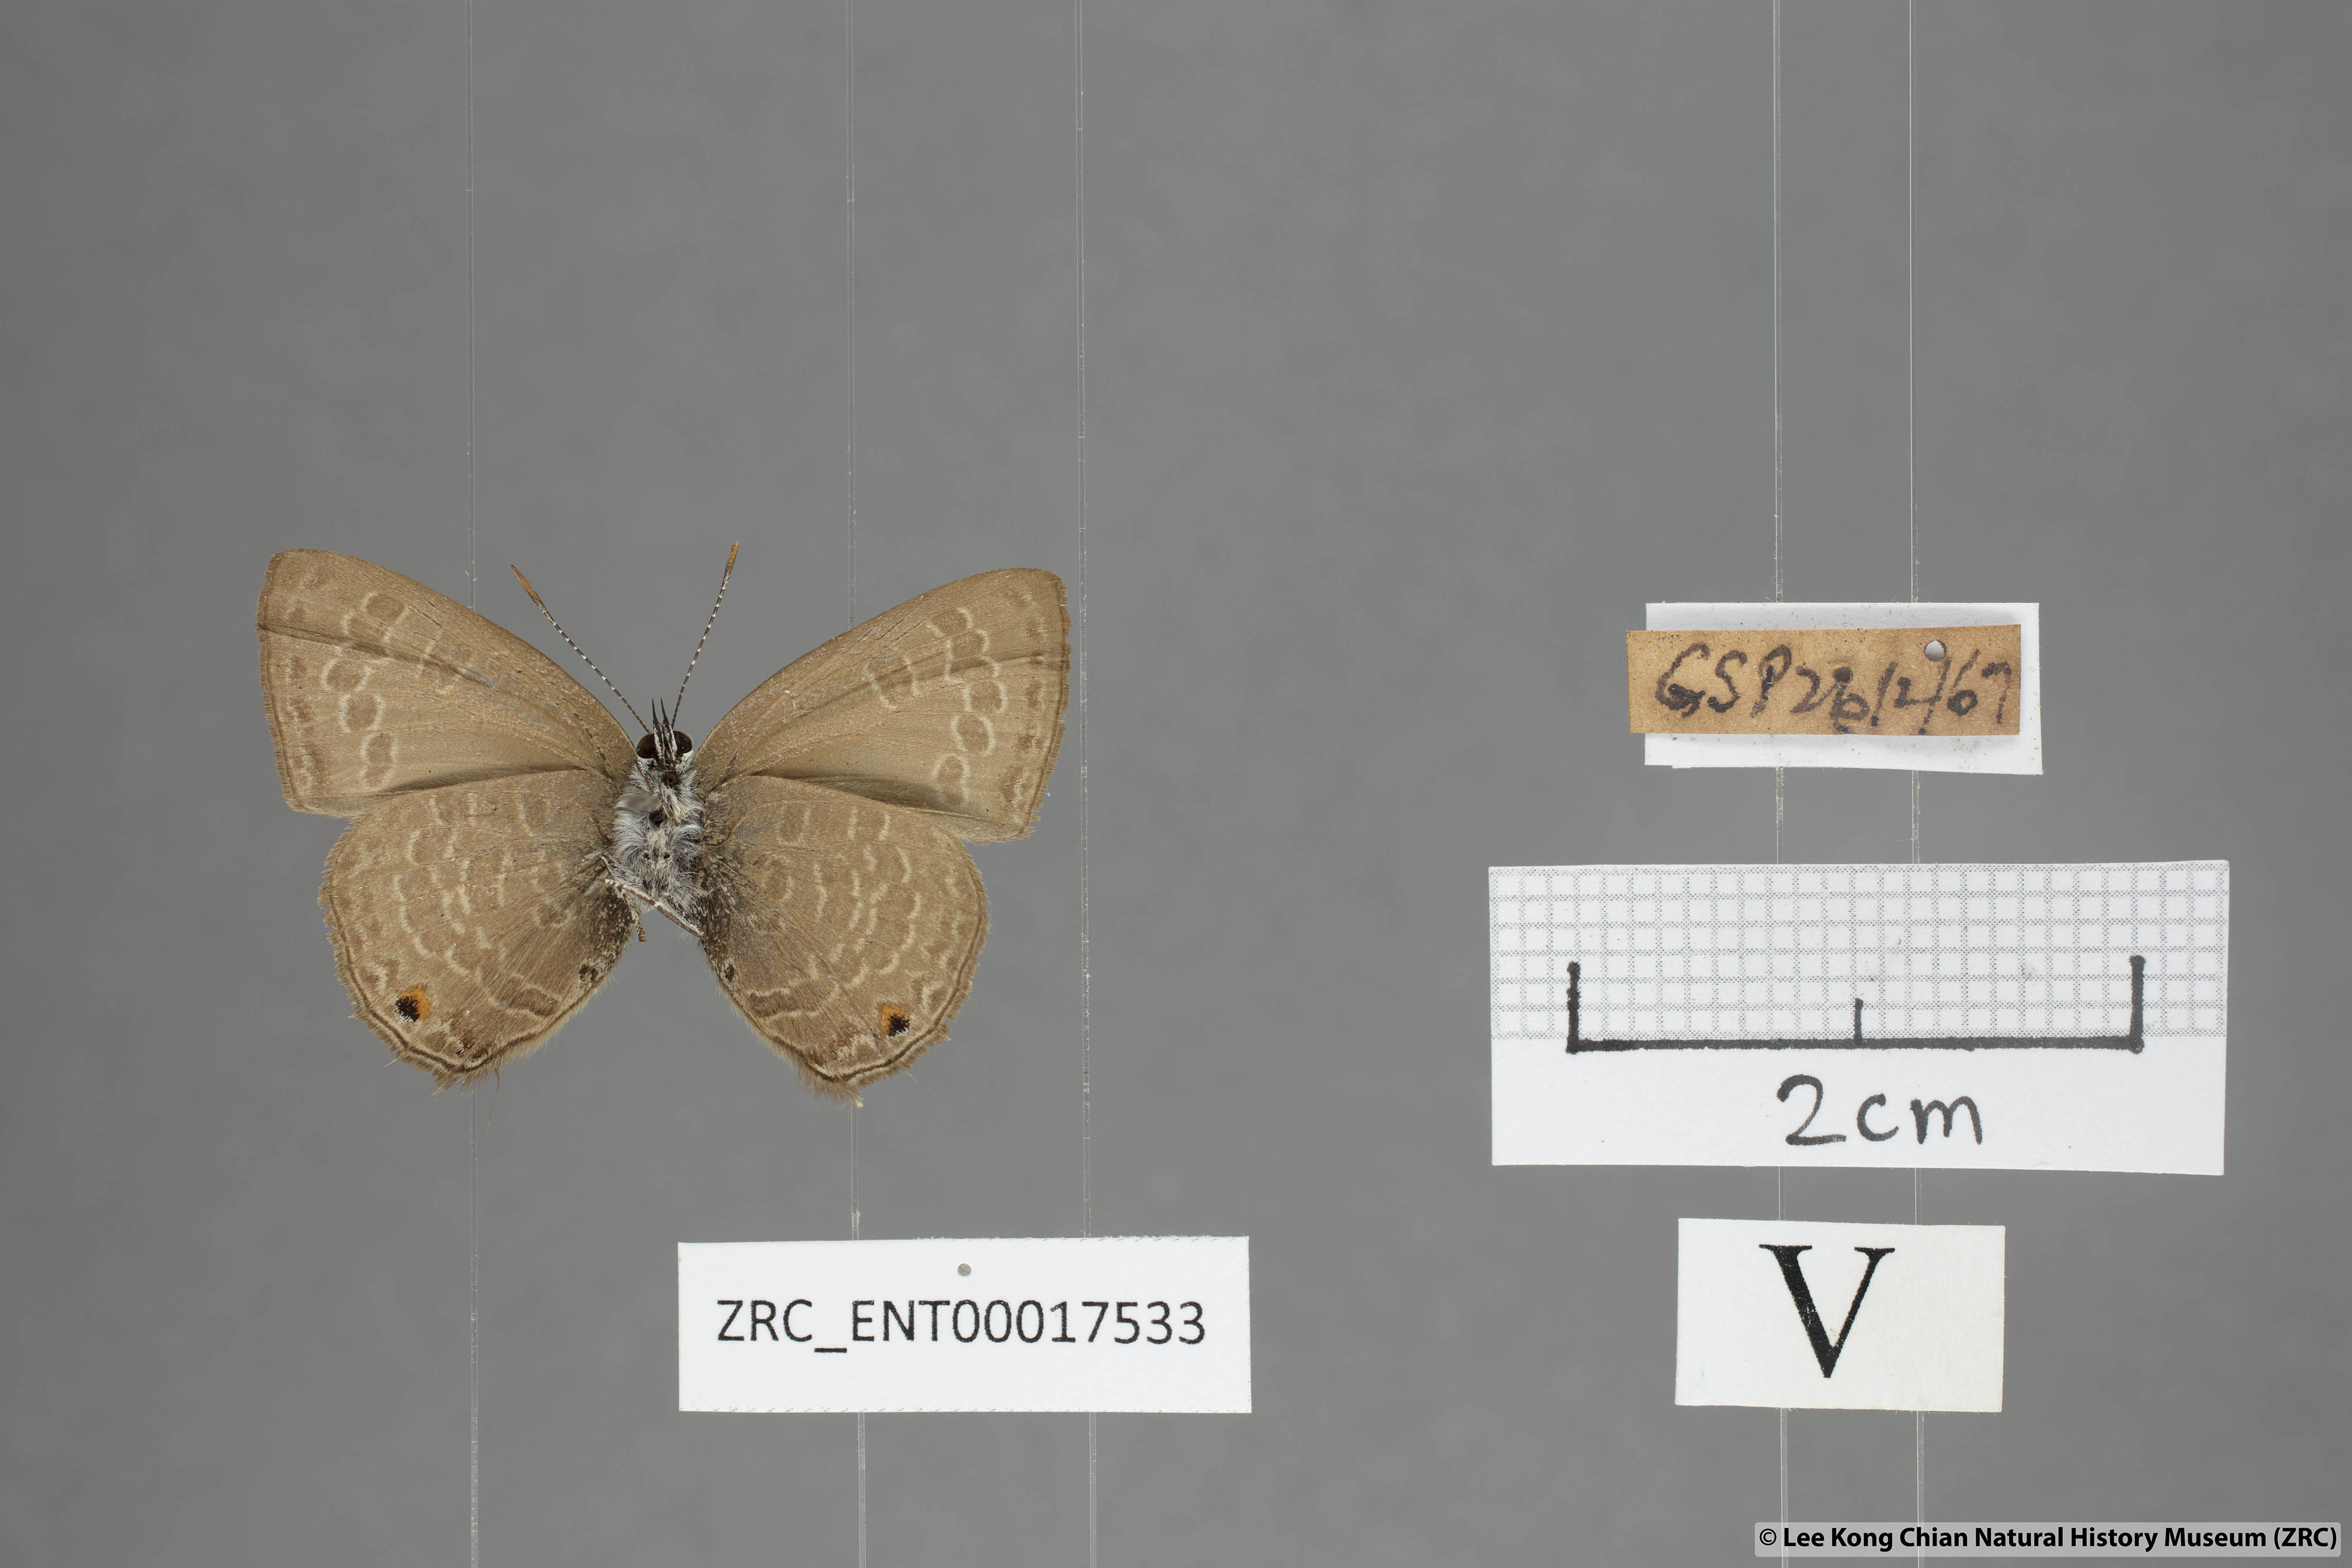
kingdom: Animalia
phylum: Arthropoda
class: Insecta
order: Lepidoptera
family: Lycaenidae
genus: Anthene
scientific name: Anthene emolus
